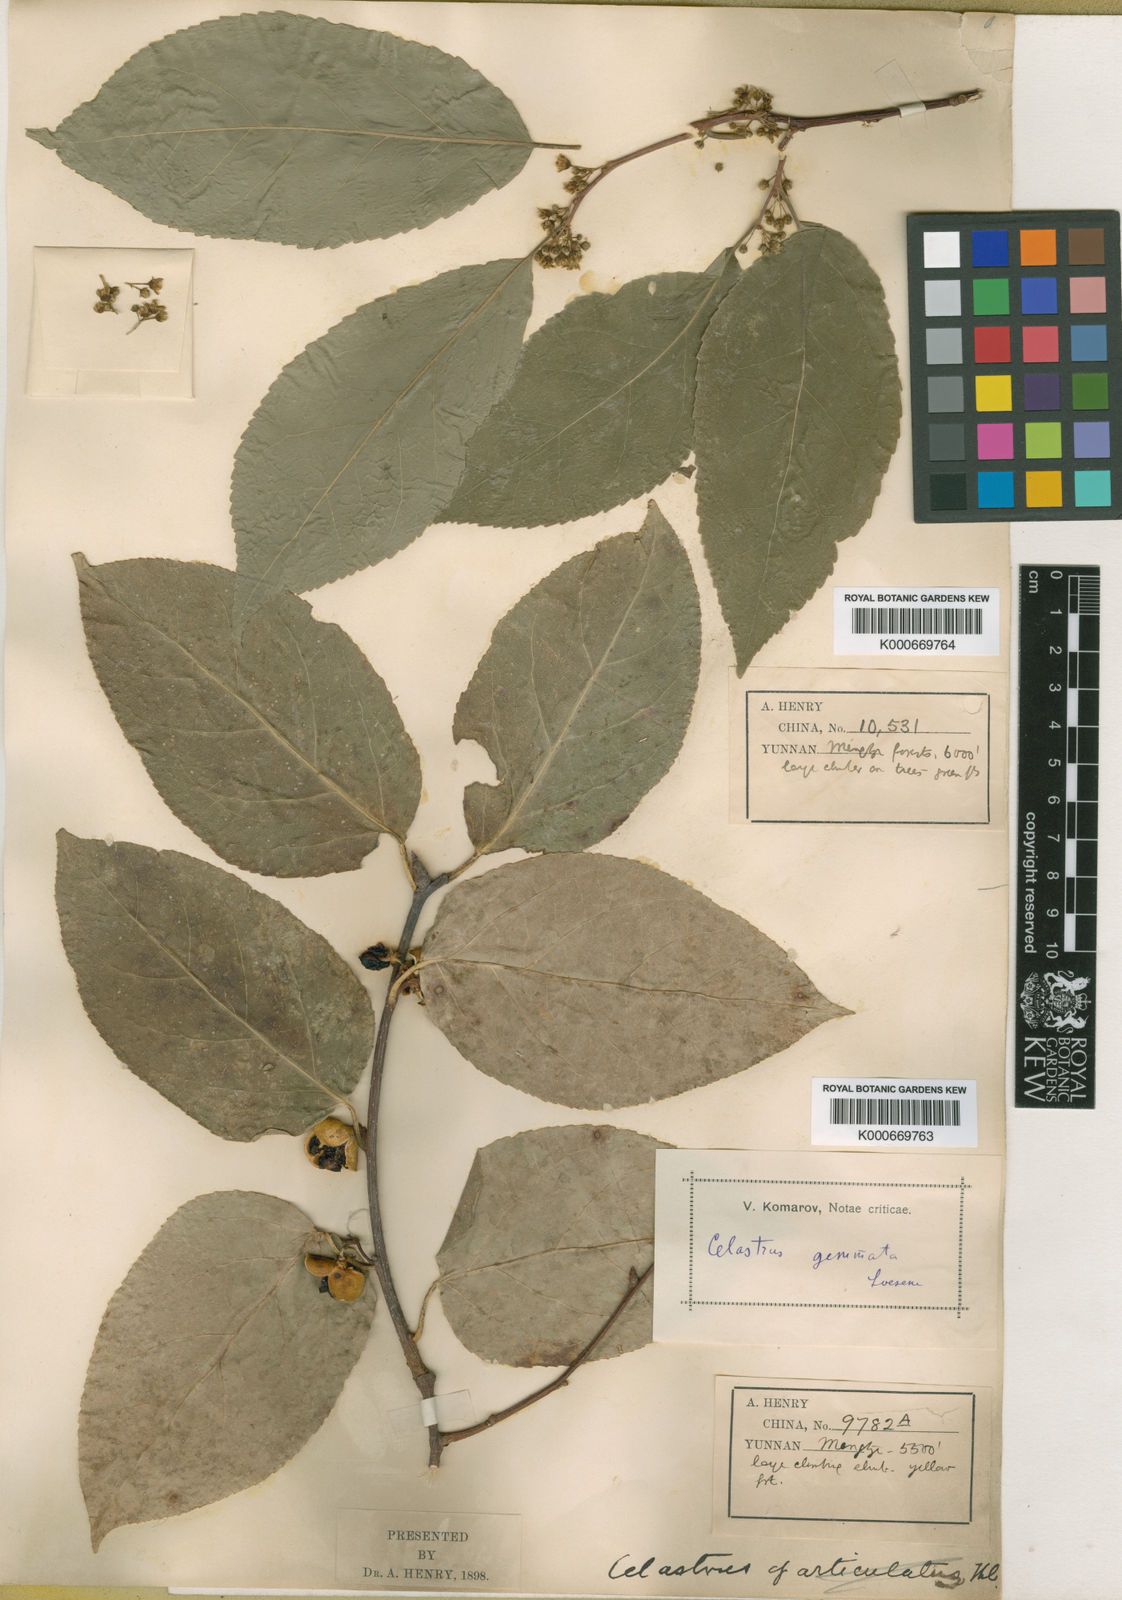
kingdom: Plantae
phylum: Tracheophyta
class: Magnoliopsida
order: Celastrales
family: Celastraceae
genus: Celastrus
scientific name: Celastrus gemmatus
